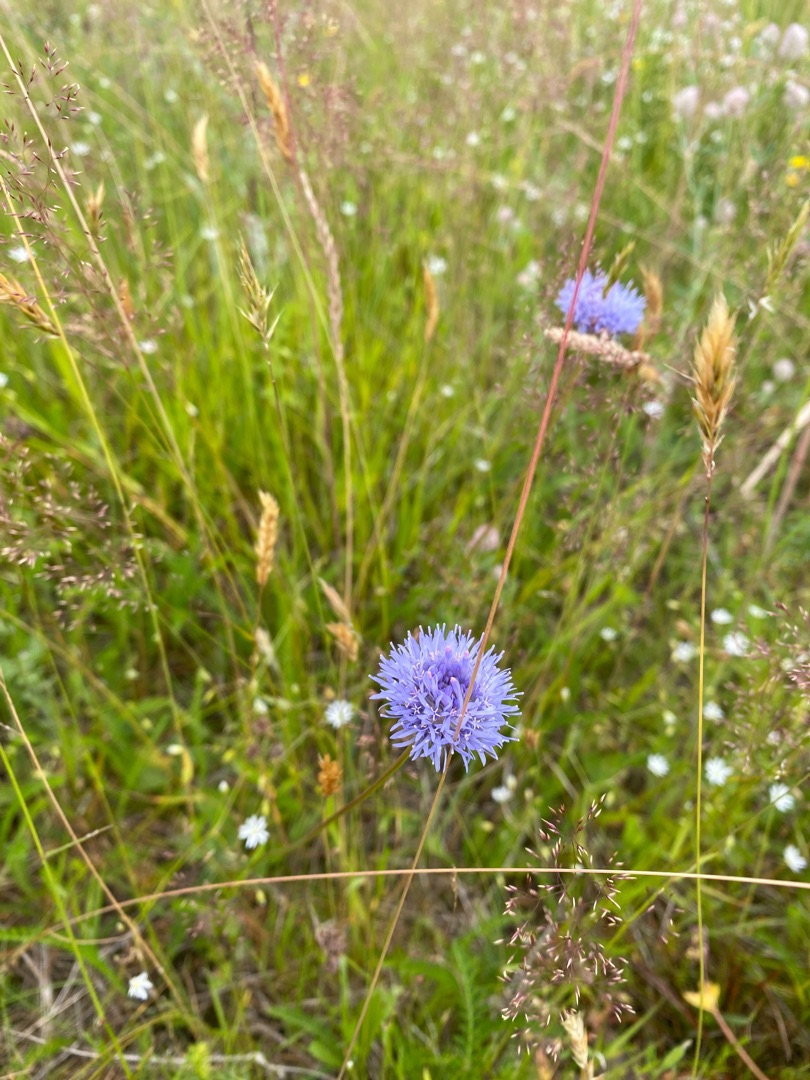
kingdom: Plantae
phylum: Tracheophyta
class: Magnoliopsida
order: Asterales
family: Campanulaceae
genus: Jasione
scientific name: Jasione montana
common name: Blåmunke
